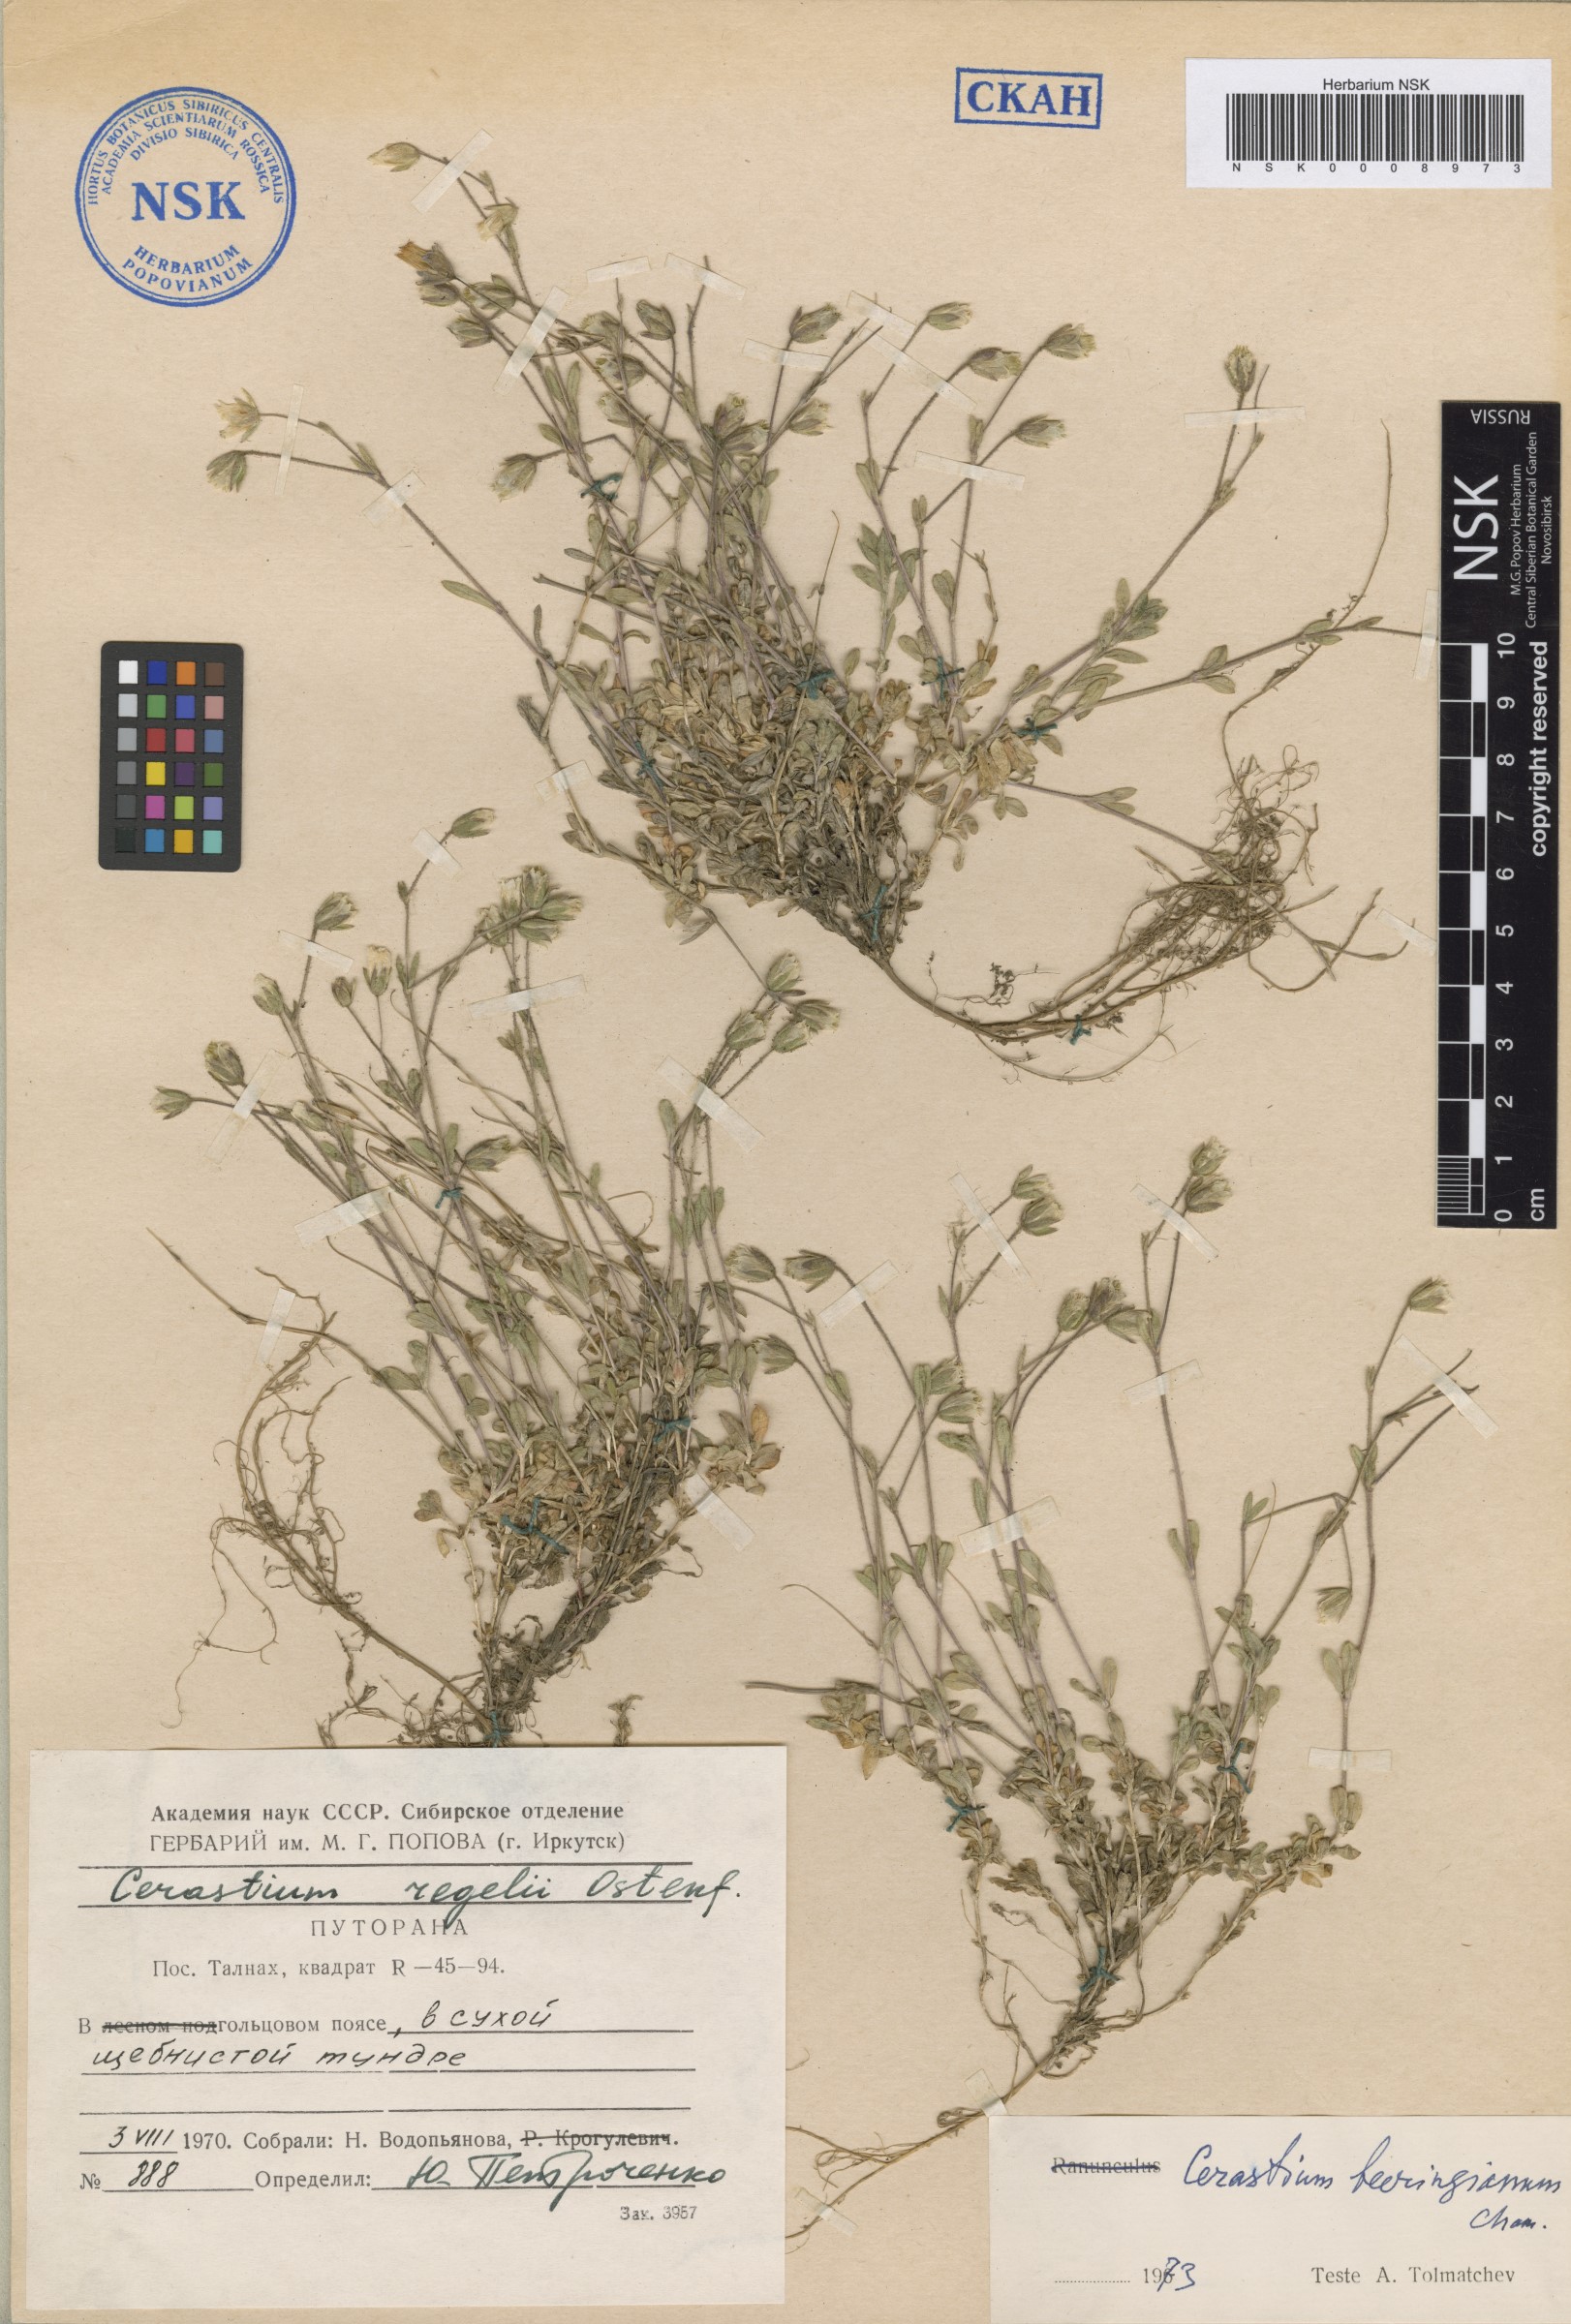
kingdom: Plantae
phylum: Tracheophyta
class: Magnoliopsida
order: Caryophyllales
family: Caryophyllaceae
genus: Cerastium
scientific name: Cerastium beeringianum
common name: Bering mouse-ear chickweed
